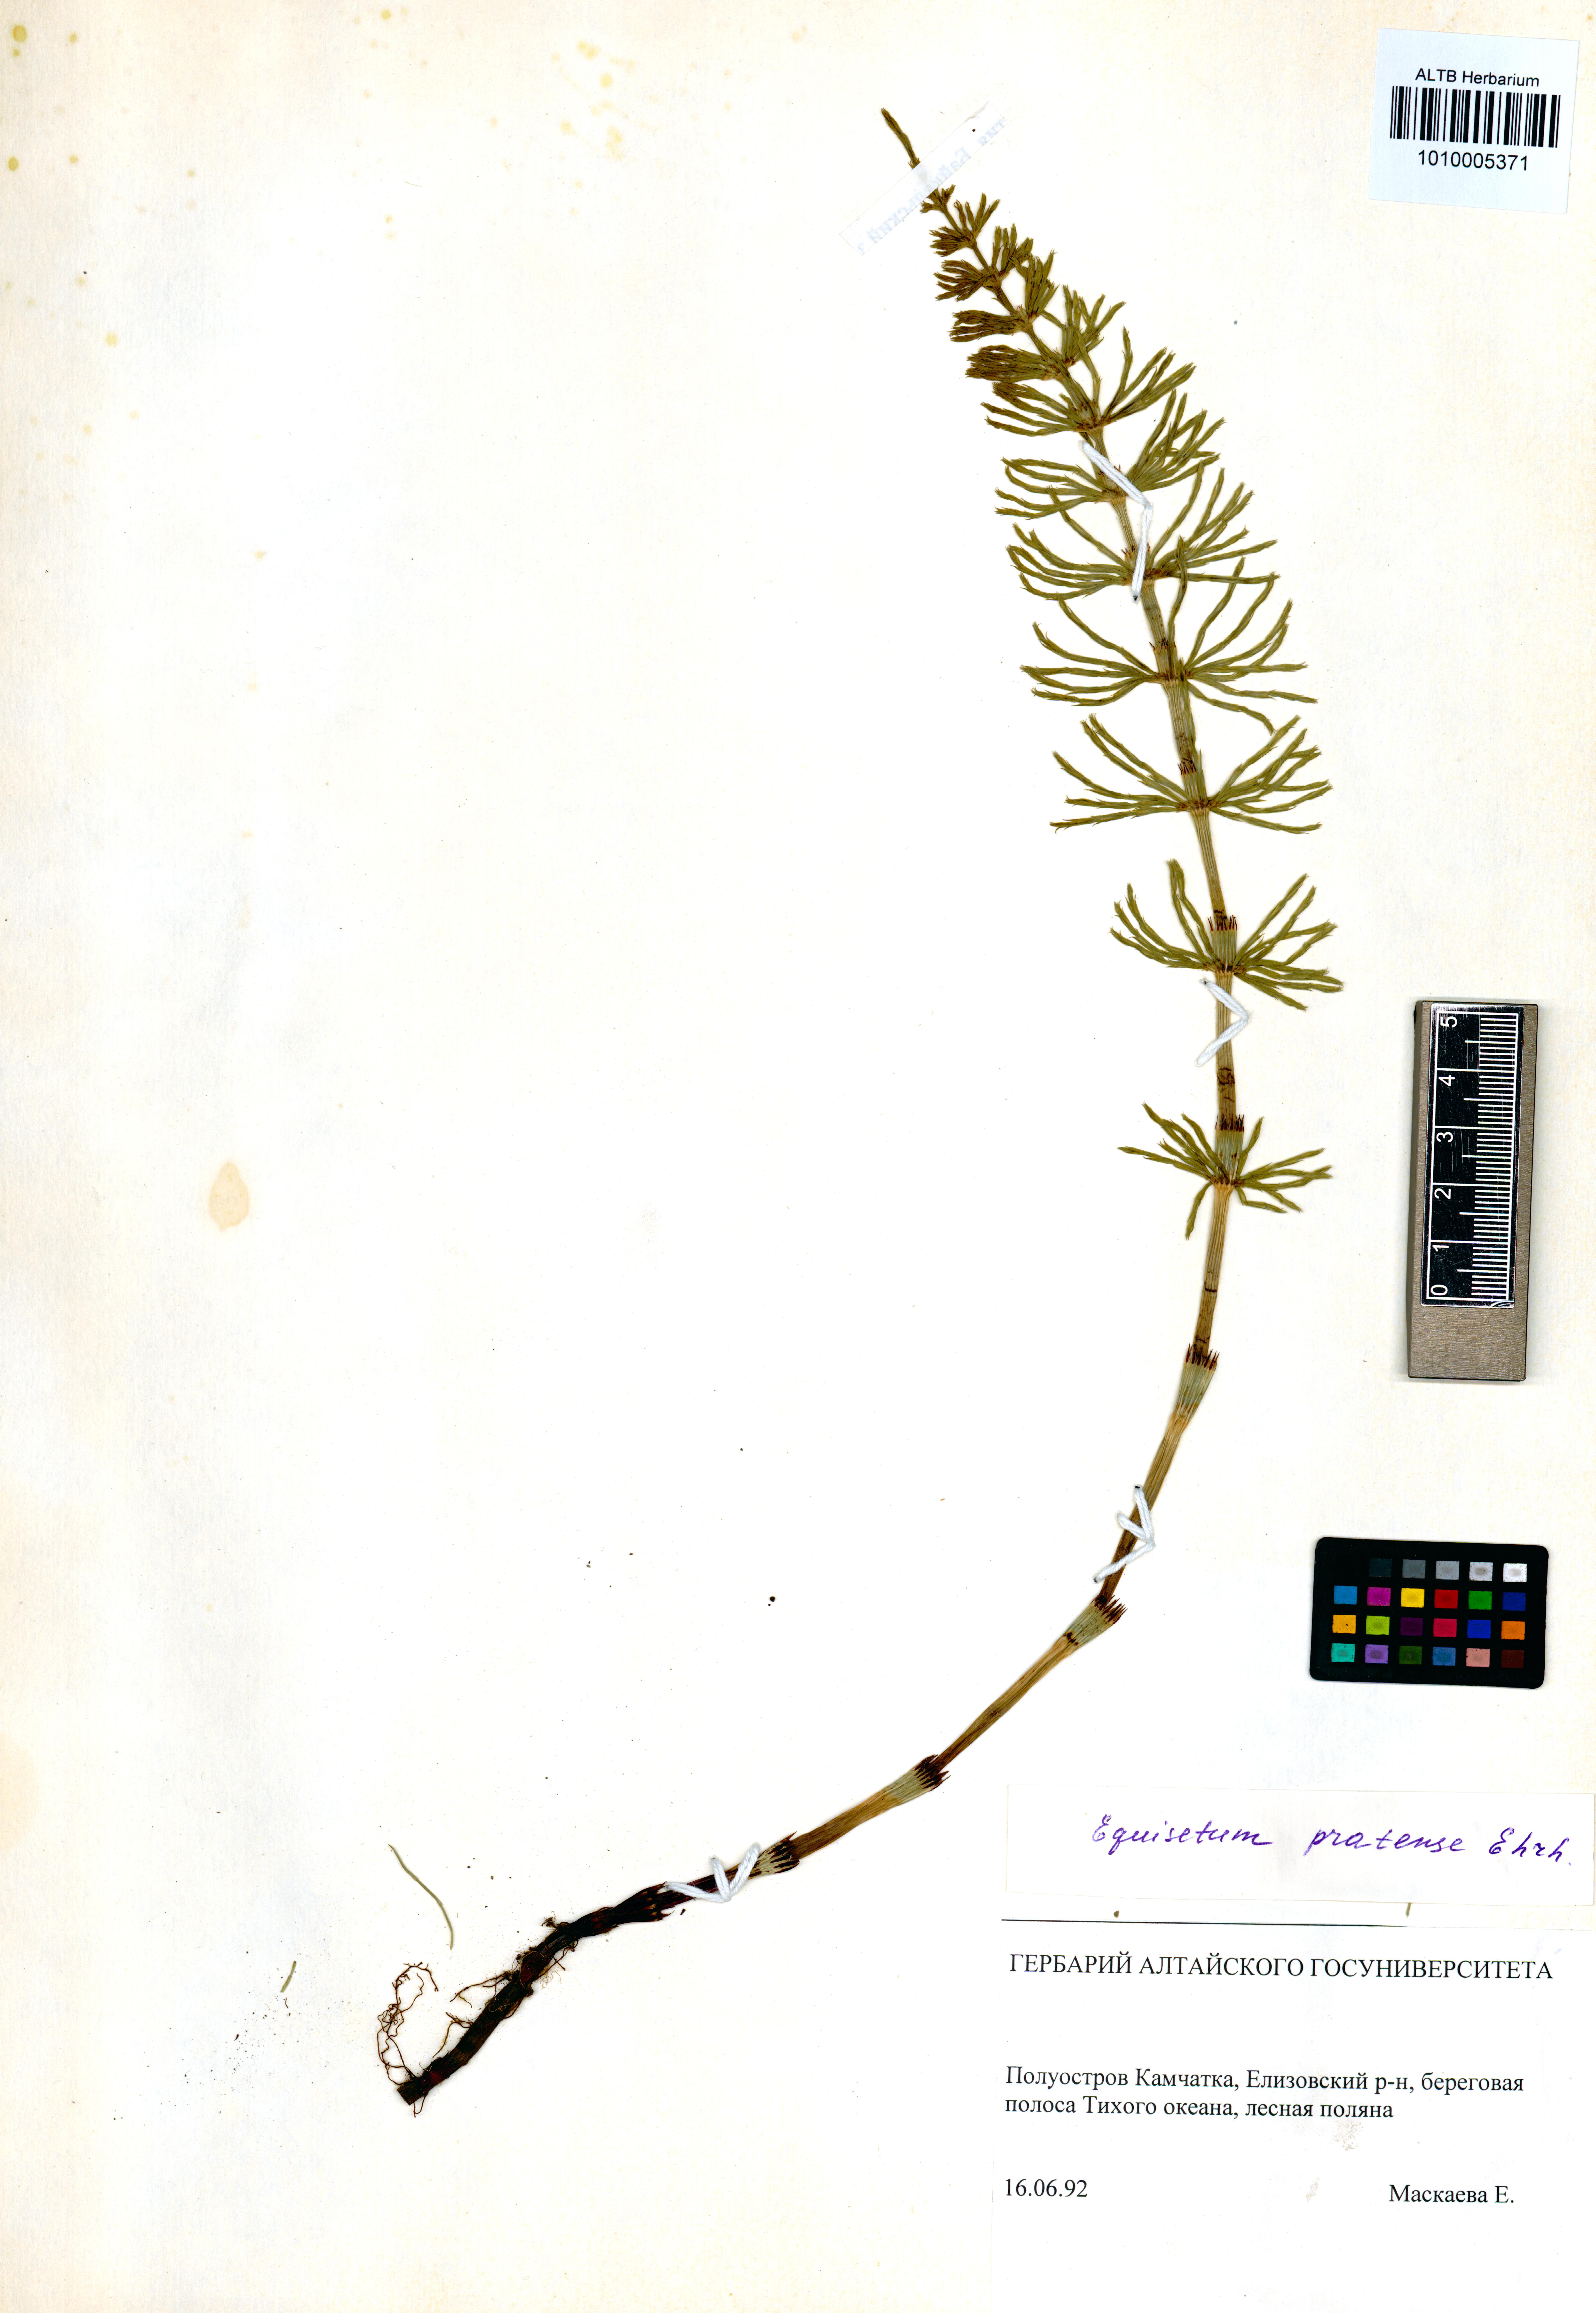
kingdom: Plantae
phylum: Tracheophyta
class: Polypodiopsida
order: Equisetales
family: Equisetaceae
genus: Equisetum
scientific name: Equisetum pratense
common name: Meadow horsetail
